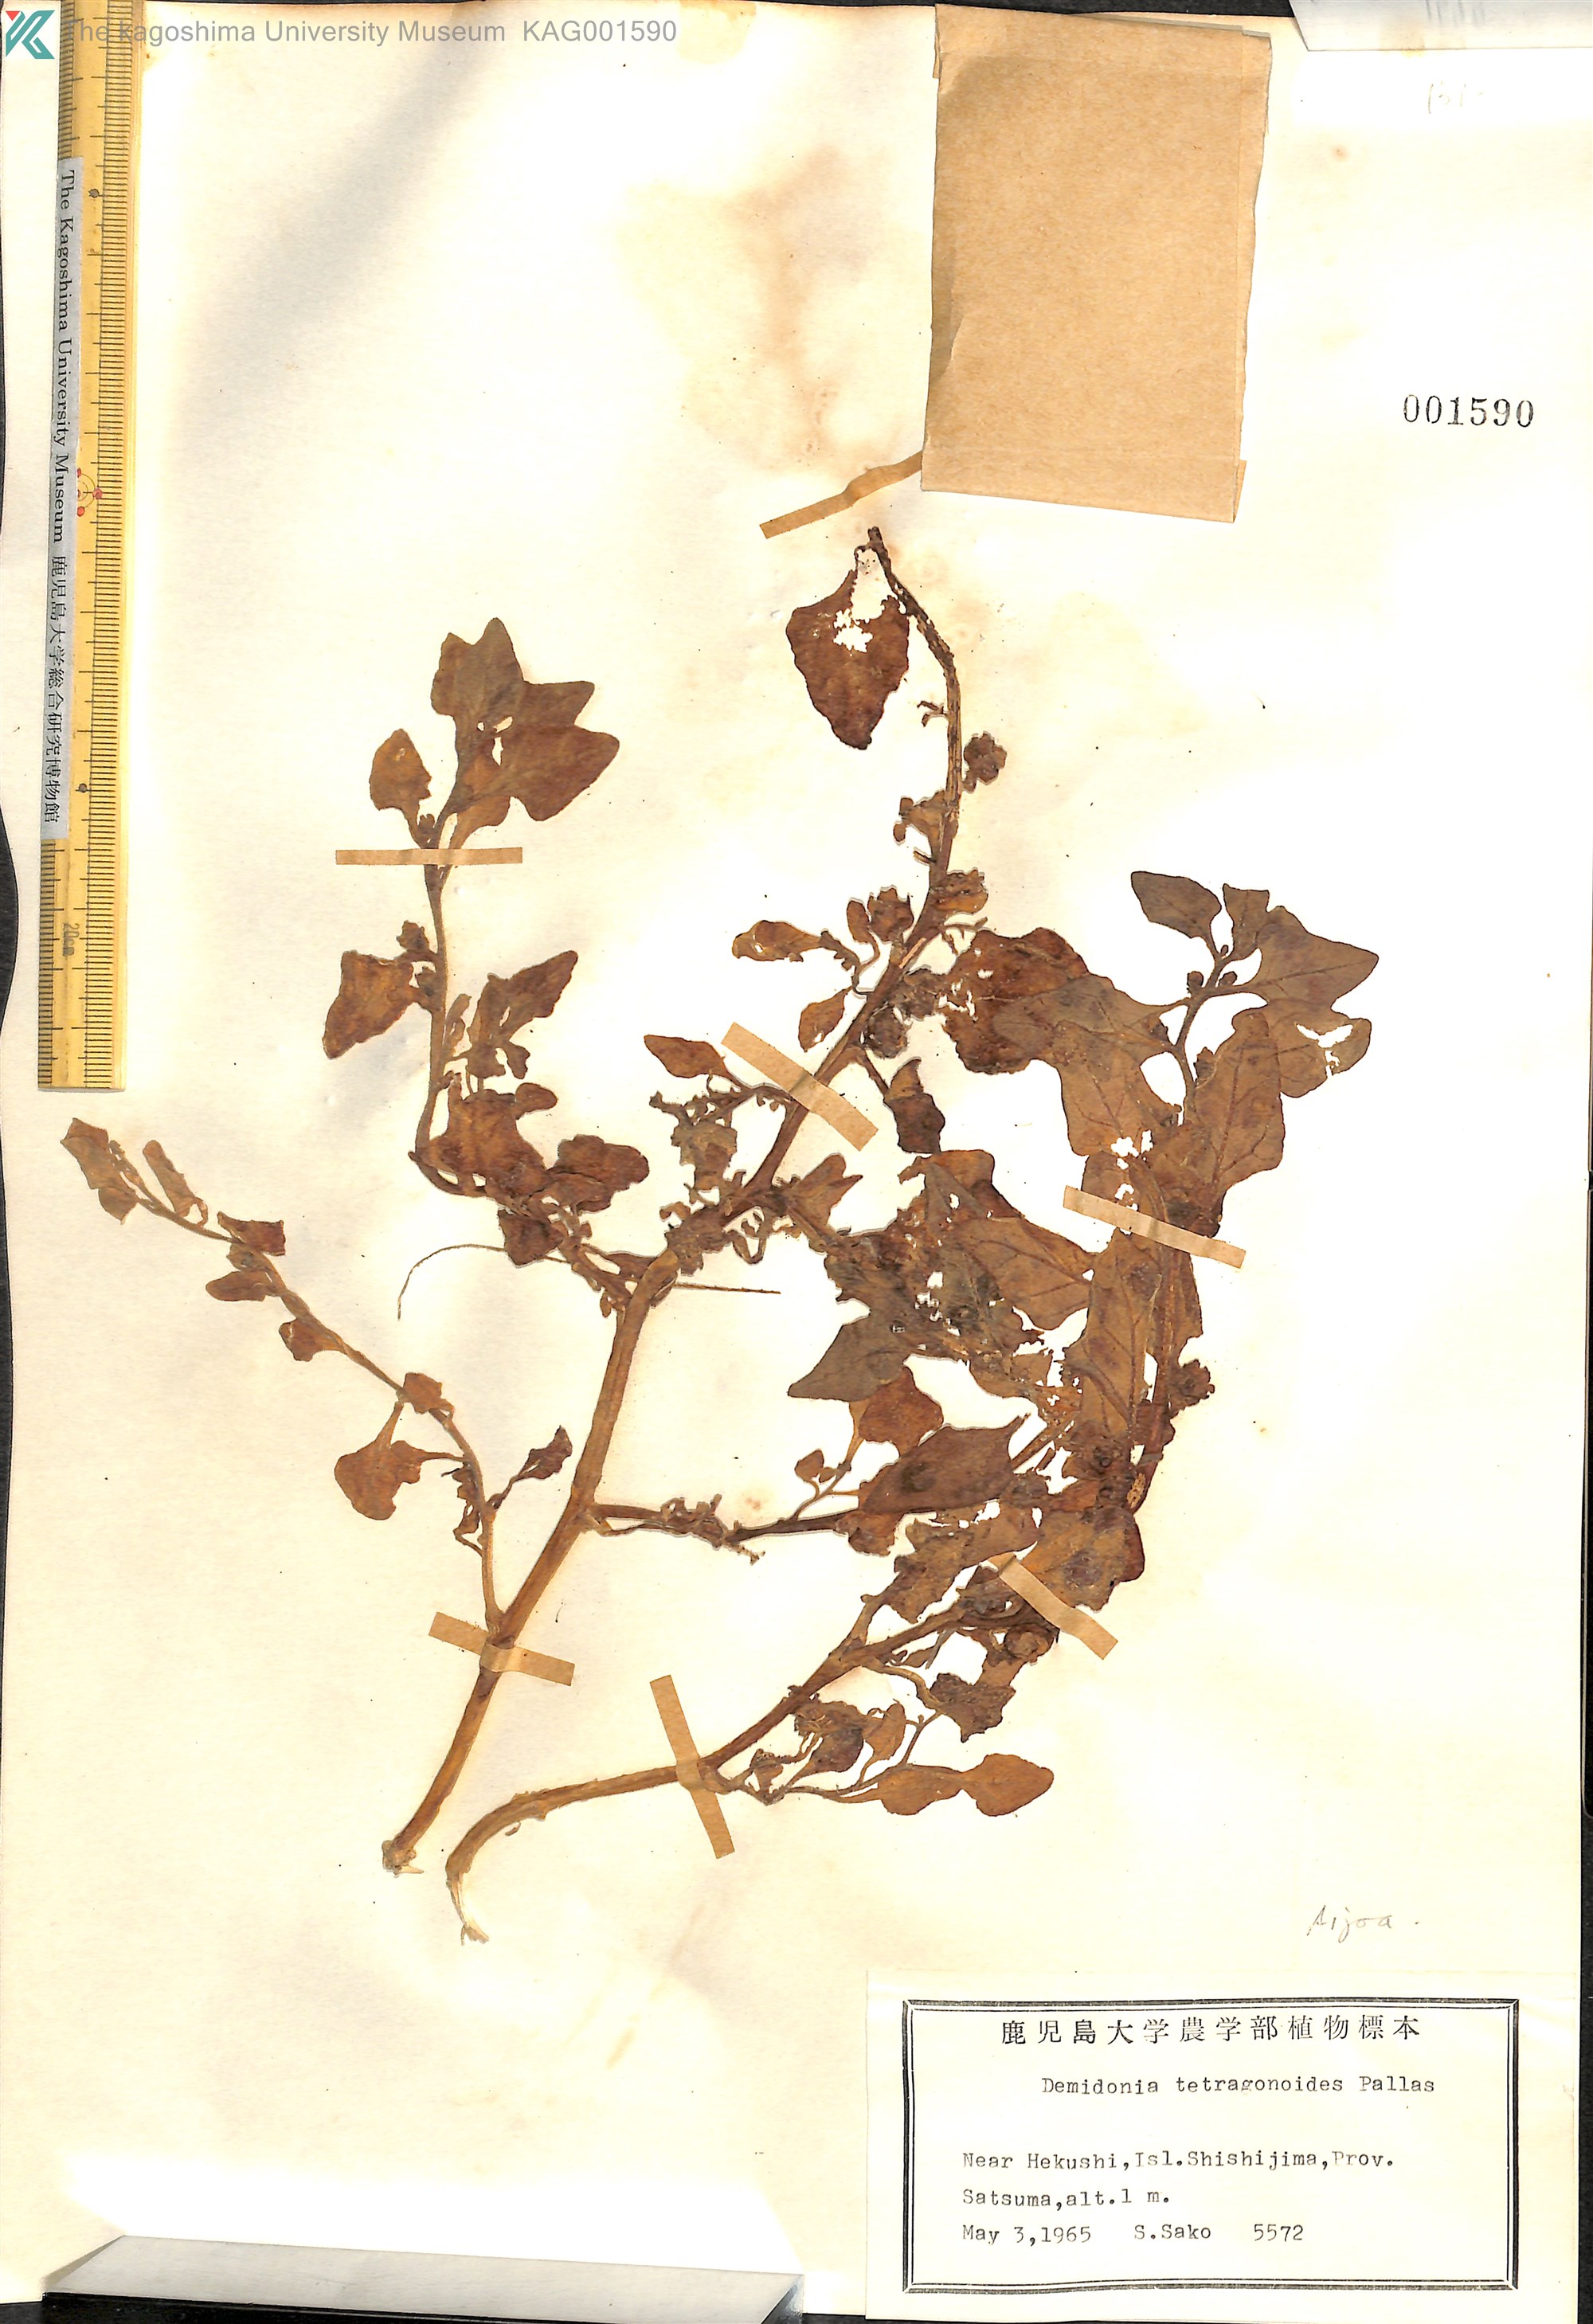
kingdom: Plantae
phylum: Tracheophyta
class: Magnoliopsida
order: Caryophyllales
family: Aizoaceae
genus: Tetragonia
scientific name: Tetragonia tetragonoides
